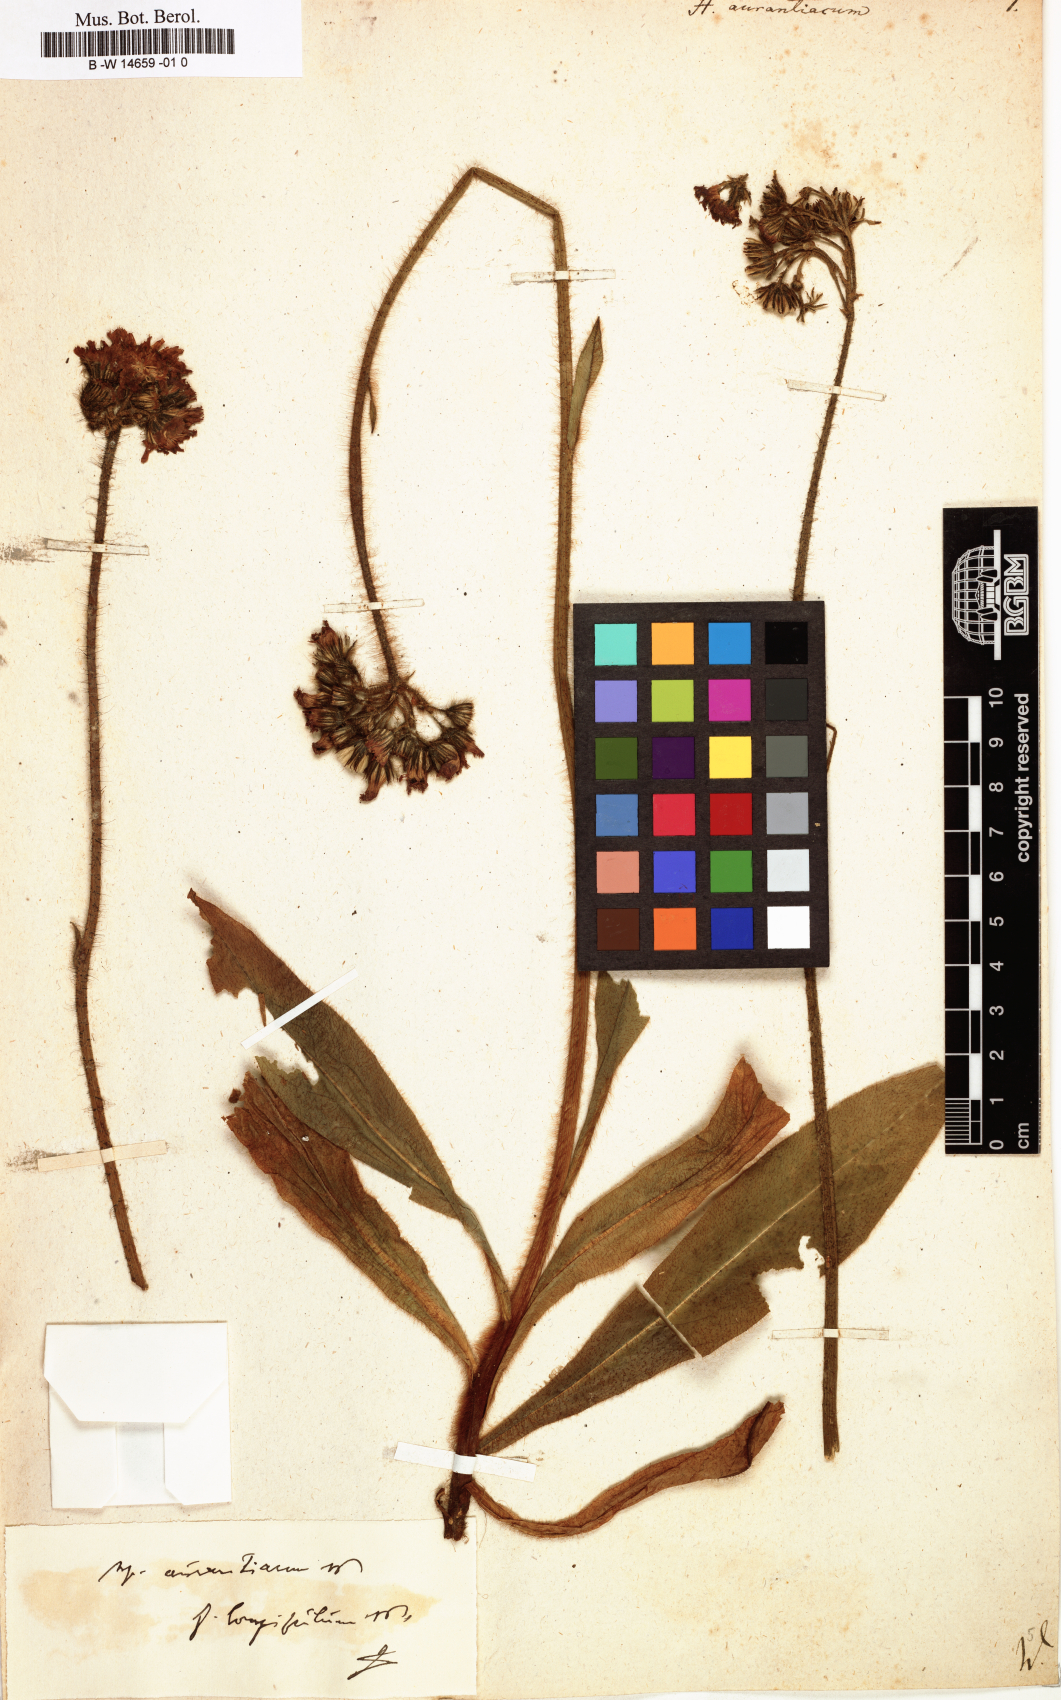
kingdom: Plantae
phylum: Tracheophyta
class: Magnoliopsida
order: Asterales
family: Asteraceae
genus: Pilosella
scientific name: Pilosella aurantiaca
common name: Fox-and-cubs
